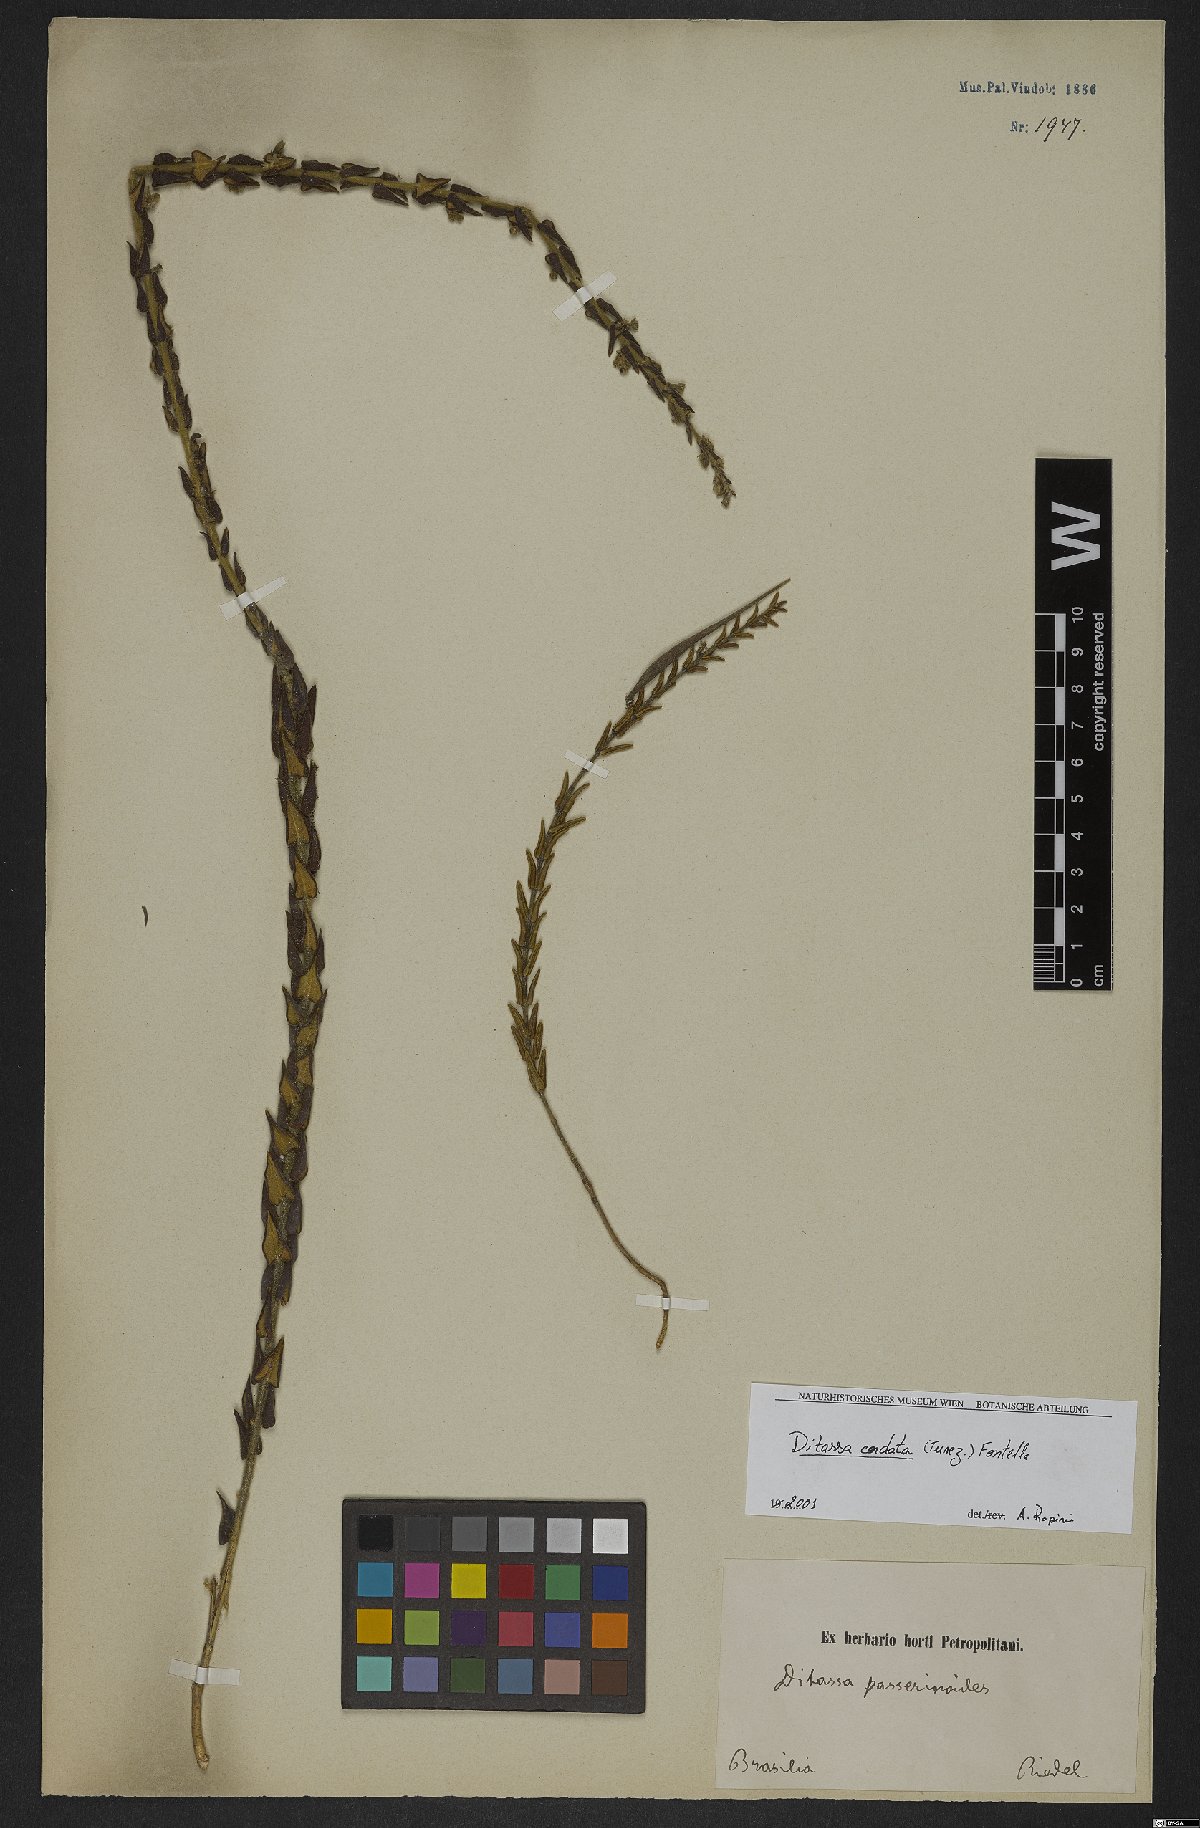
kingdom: Plantae
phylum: Tracheophyta
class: Magnoliopsida
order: Gentianales
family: Apocynaceae
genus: Minaria
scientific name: Minaria cordata
